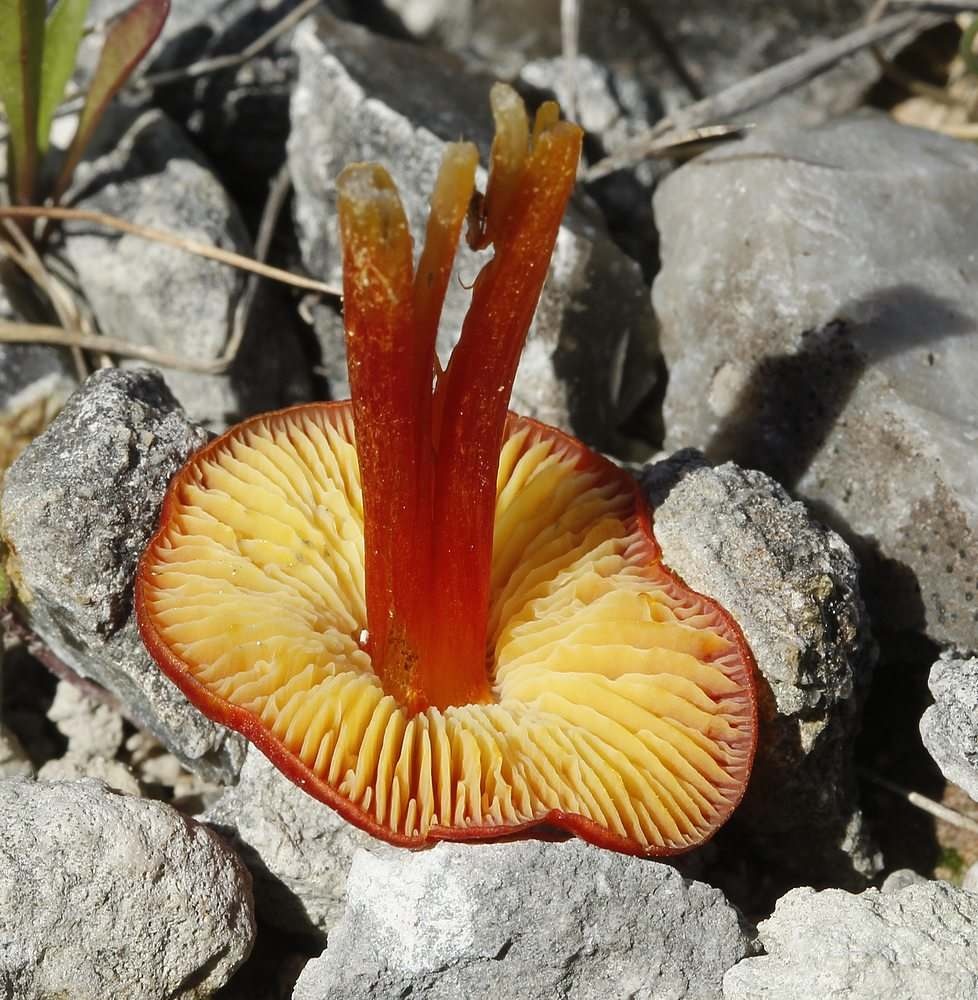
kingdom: Fungi
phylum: Basidiomycota
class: Agaricomycetes
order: Agaricales
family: Hygrophoraceae
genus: Hygrocybe
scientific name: Hygrocybe acutoconica
